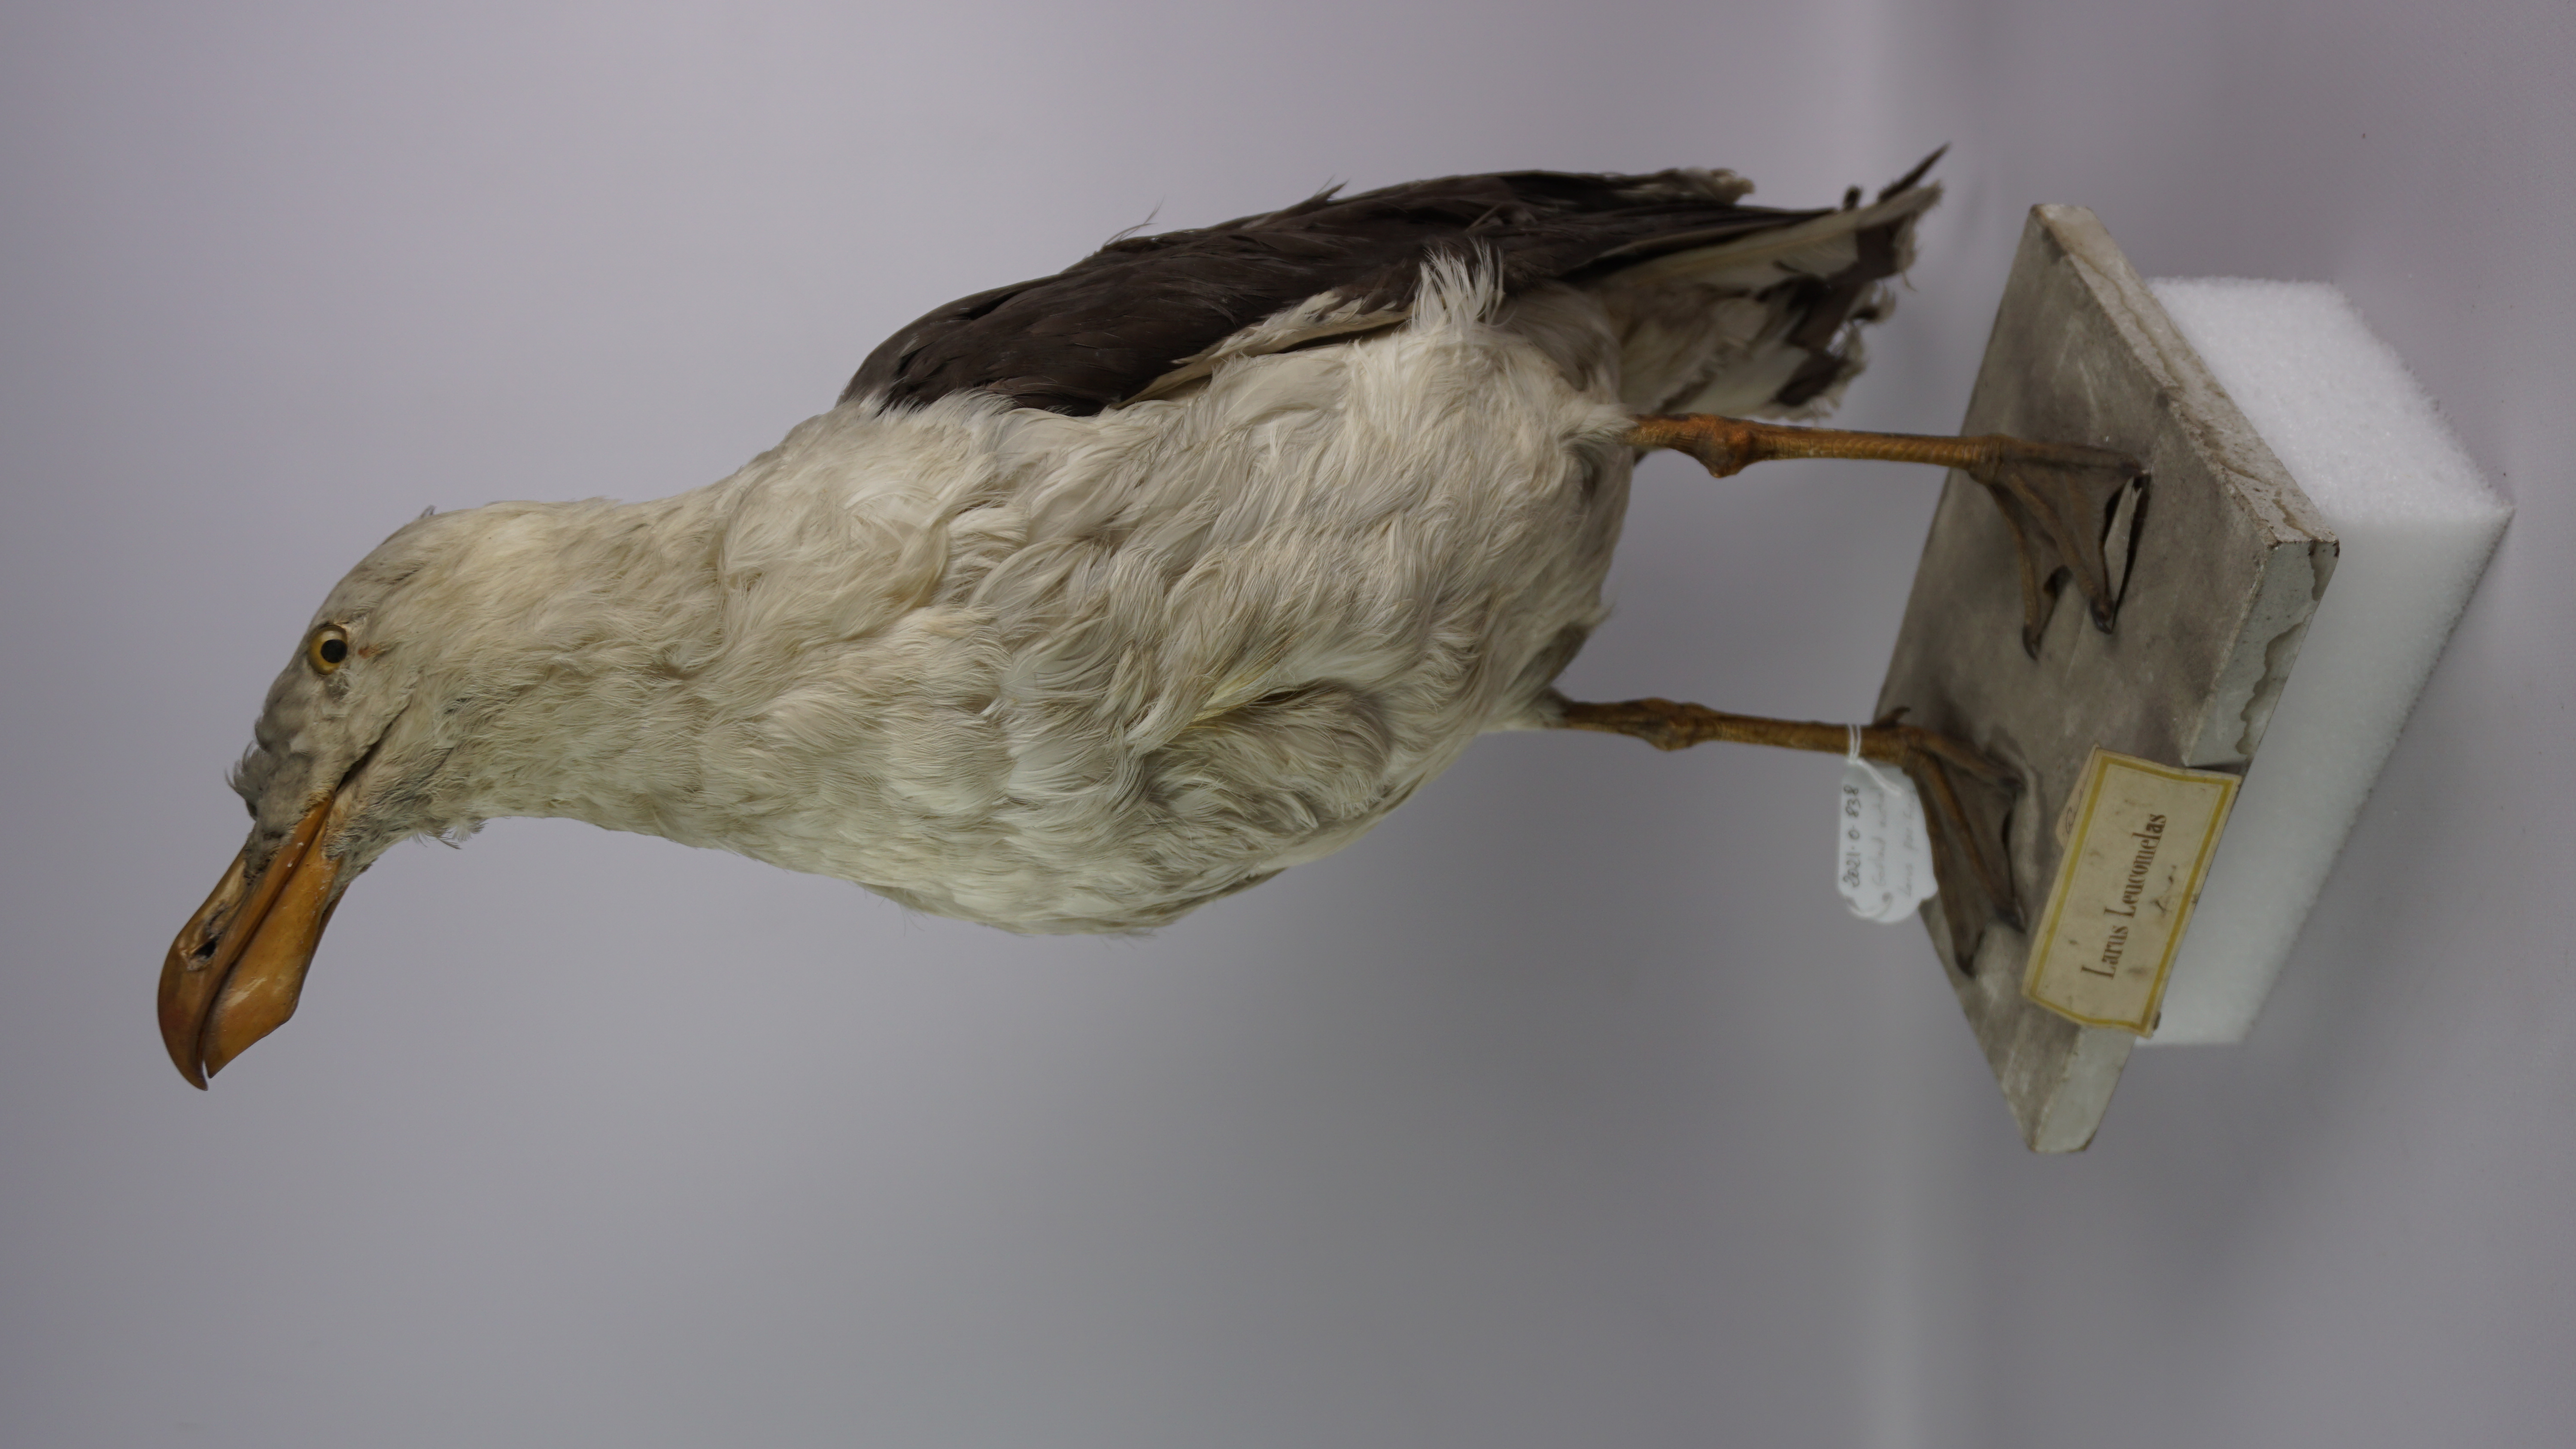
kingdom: Animalia
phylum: Chordata
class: Aves
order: Charadriiformes
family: Laridae
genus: Larus
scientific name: Larus pacificus
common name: Pacific gull
